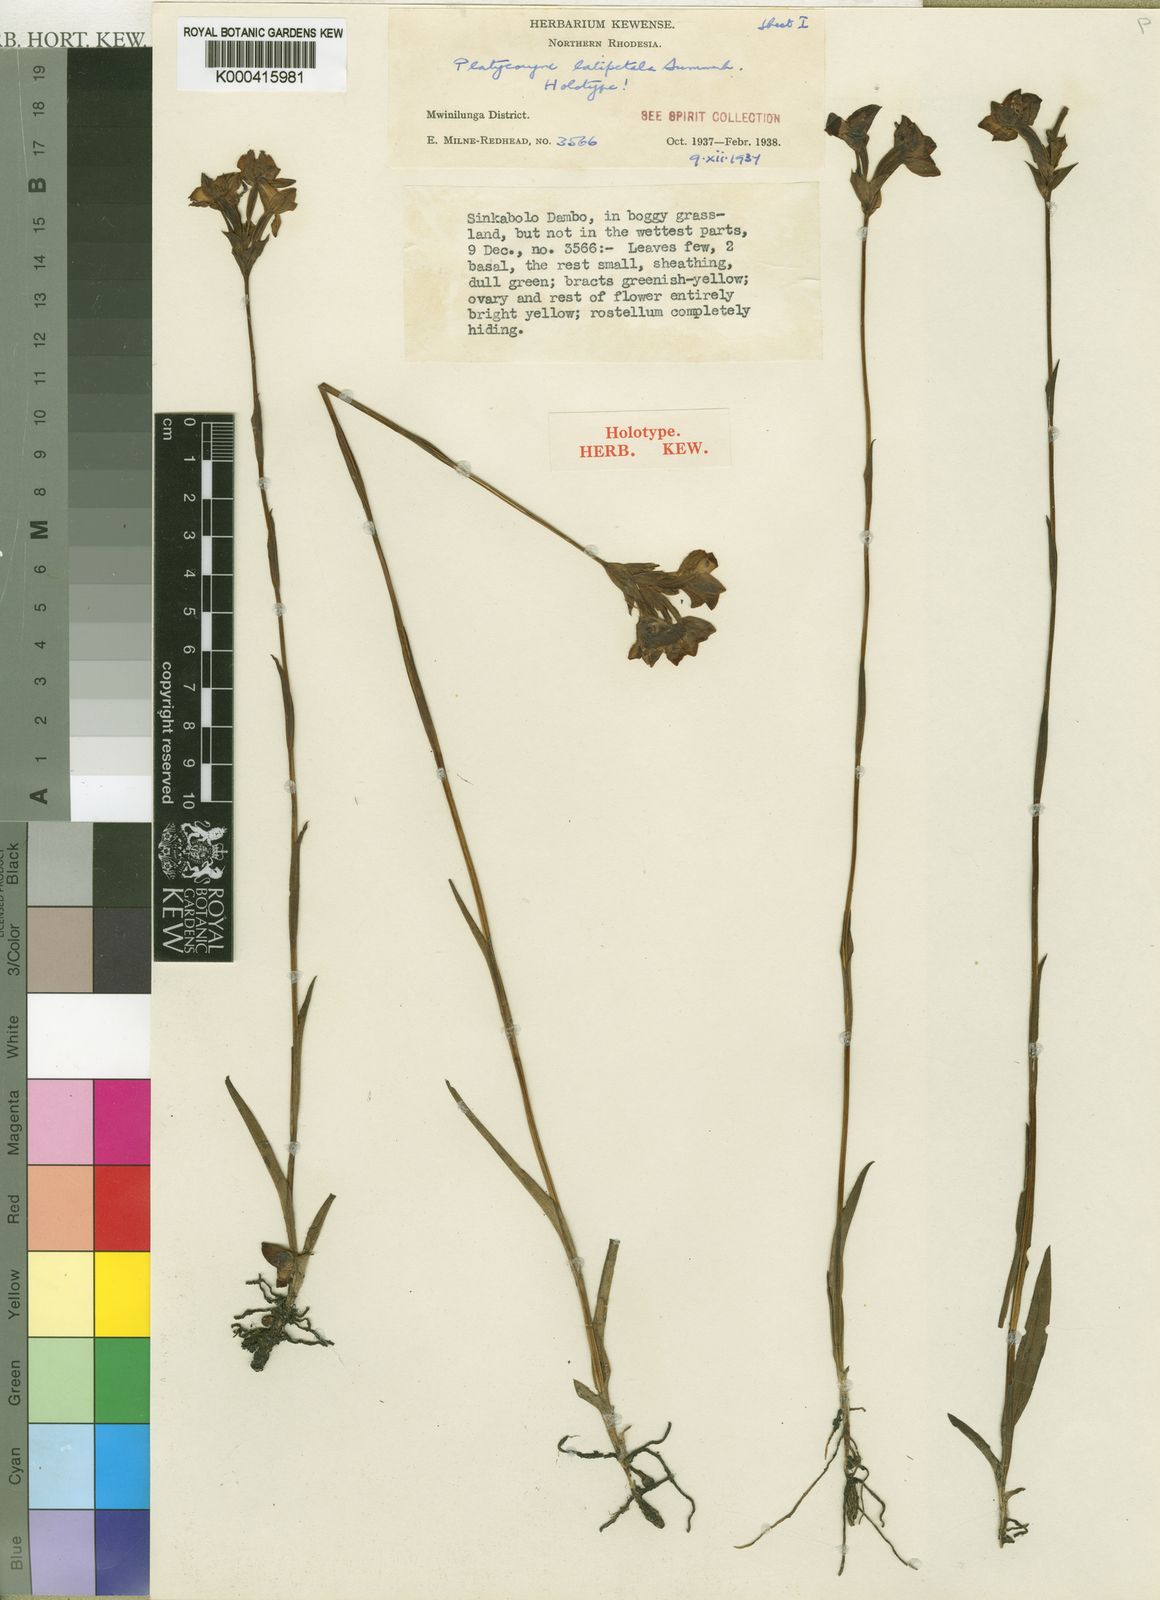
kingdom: Plantae
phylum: Tracheophyta
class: Liliopsida
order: Asparagales
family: Orchidaceae
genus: Platycoryne
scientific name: Platycoryne latipetala
